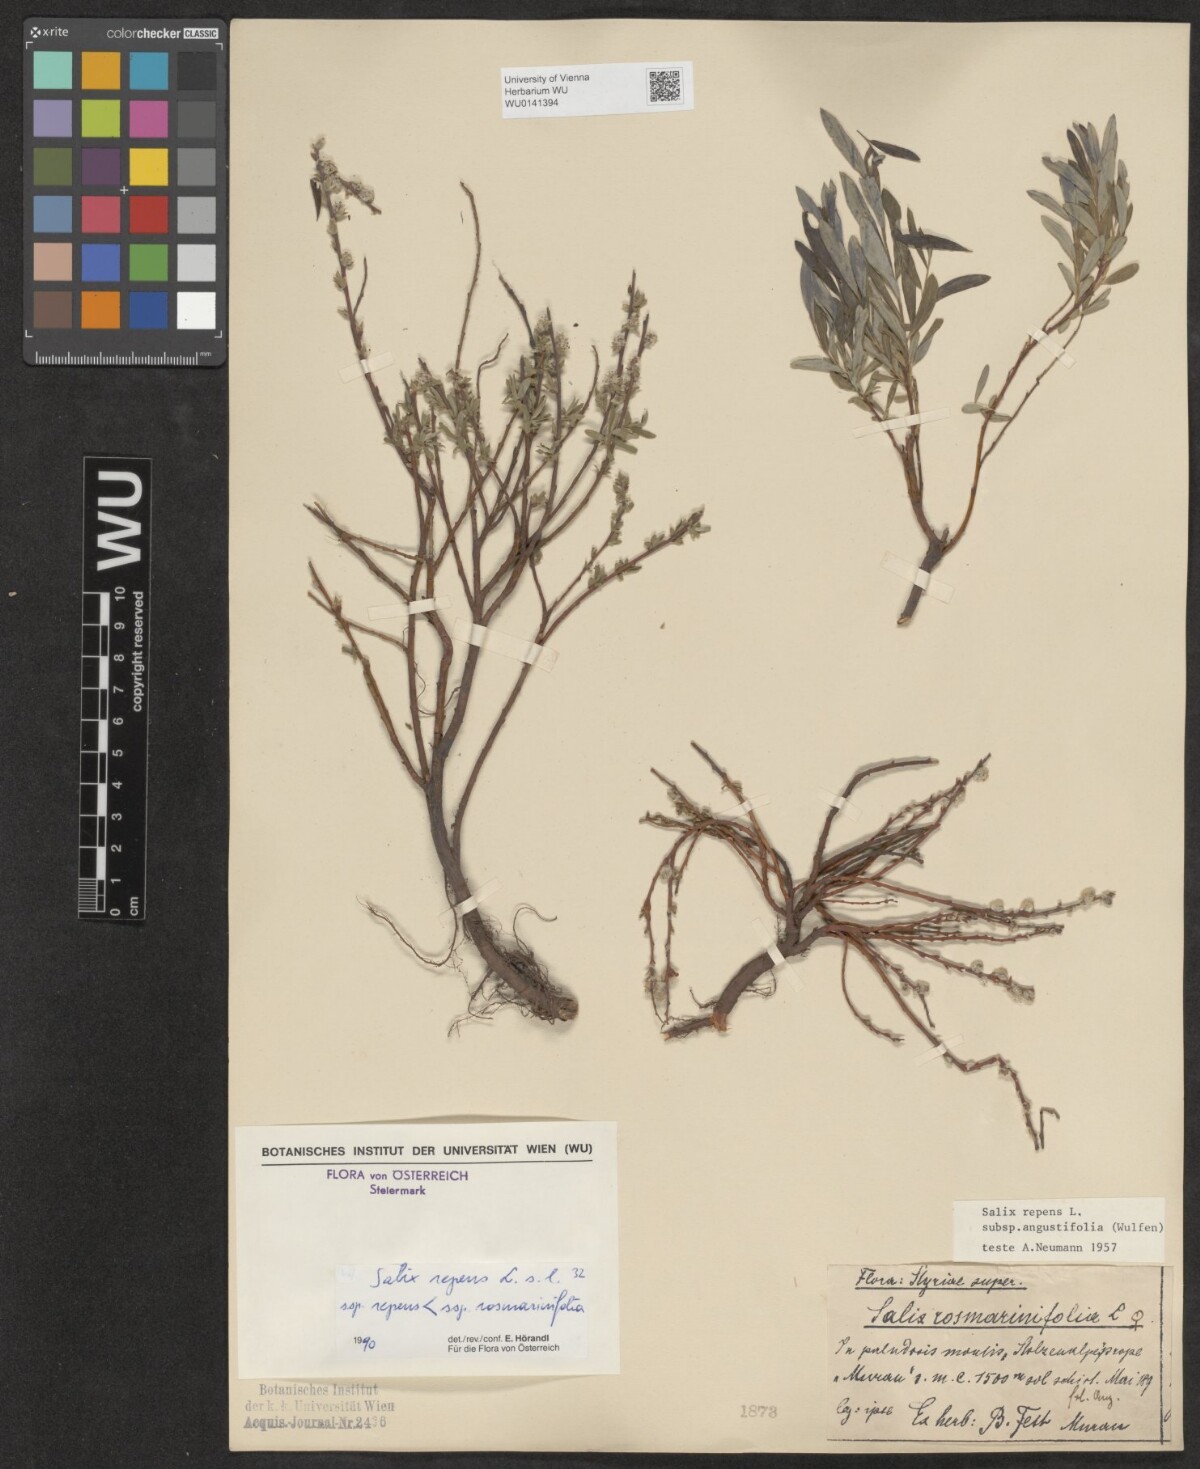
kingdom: Plantae
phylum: Tracheophyta
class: Magnoliopsida
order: Malpighiales
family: Salicaceae
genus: Salix
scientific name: Salix repens
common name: Creeping willow
